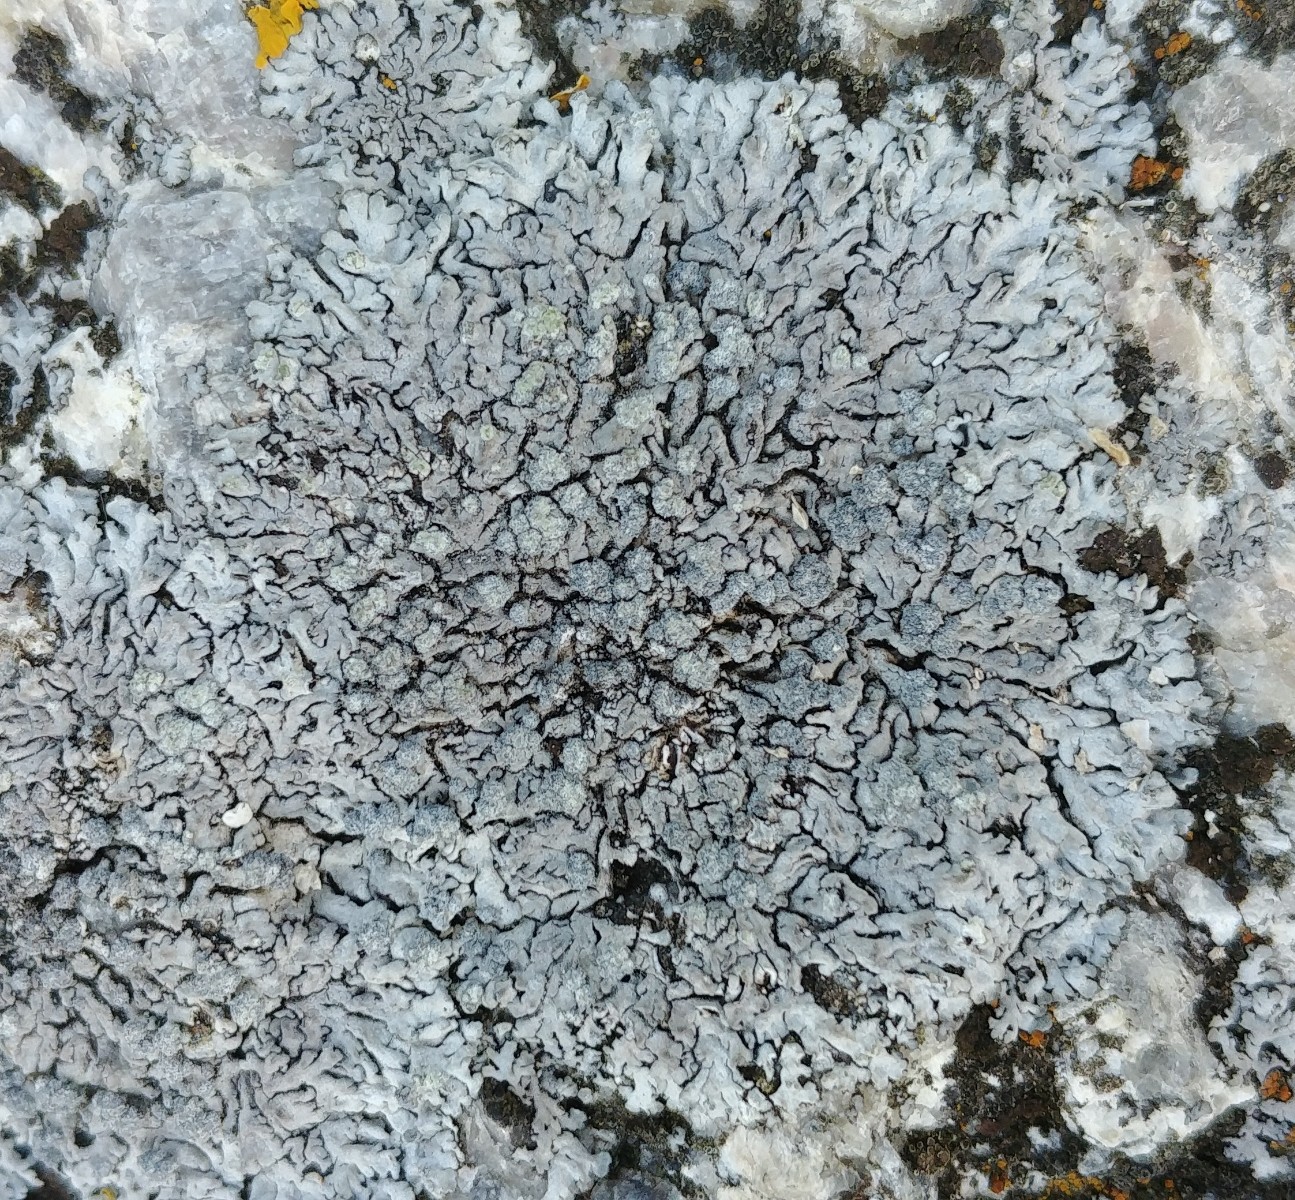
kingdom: Fungi
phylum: Ascomycota
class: Lecanoromycetes
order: Caliciales
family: Physciaceae
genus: Physcia
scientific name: Physcia caesia
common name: blågrå rosetlav
